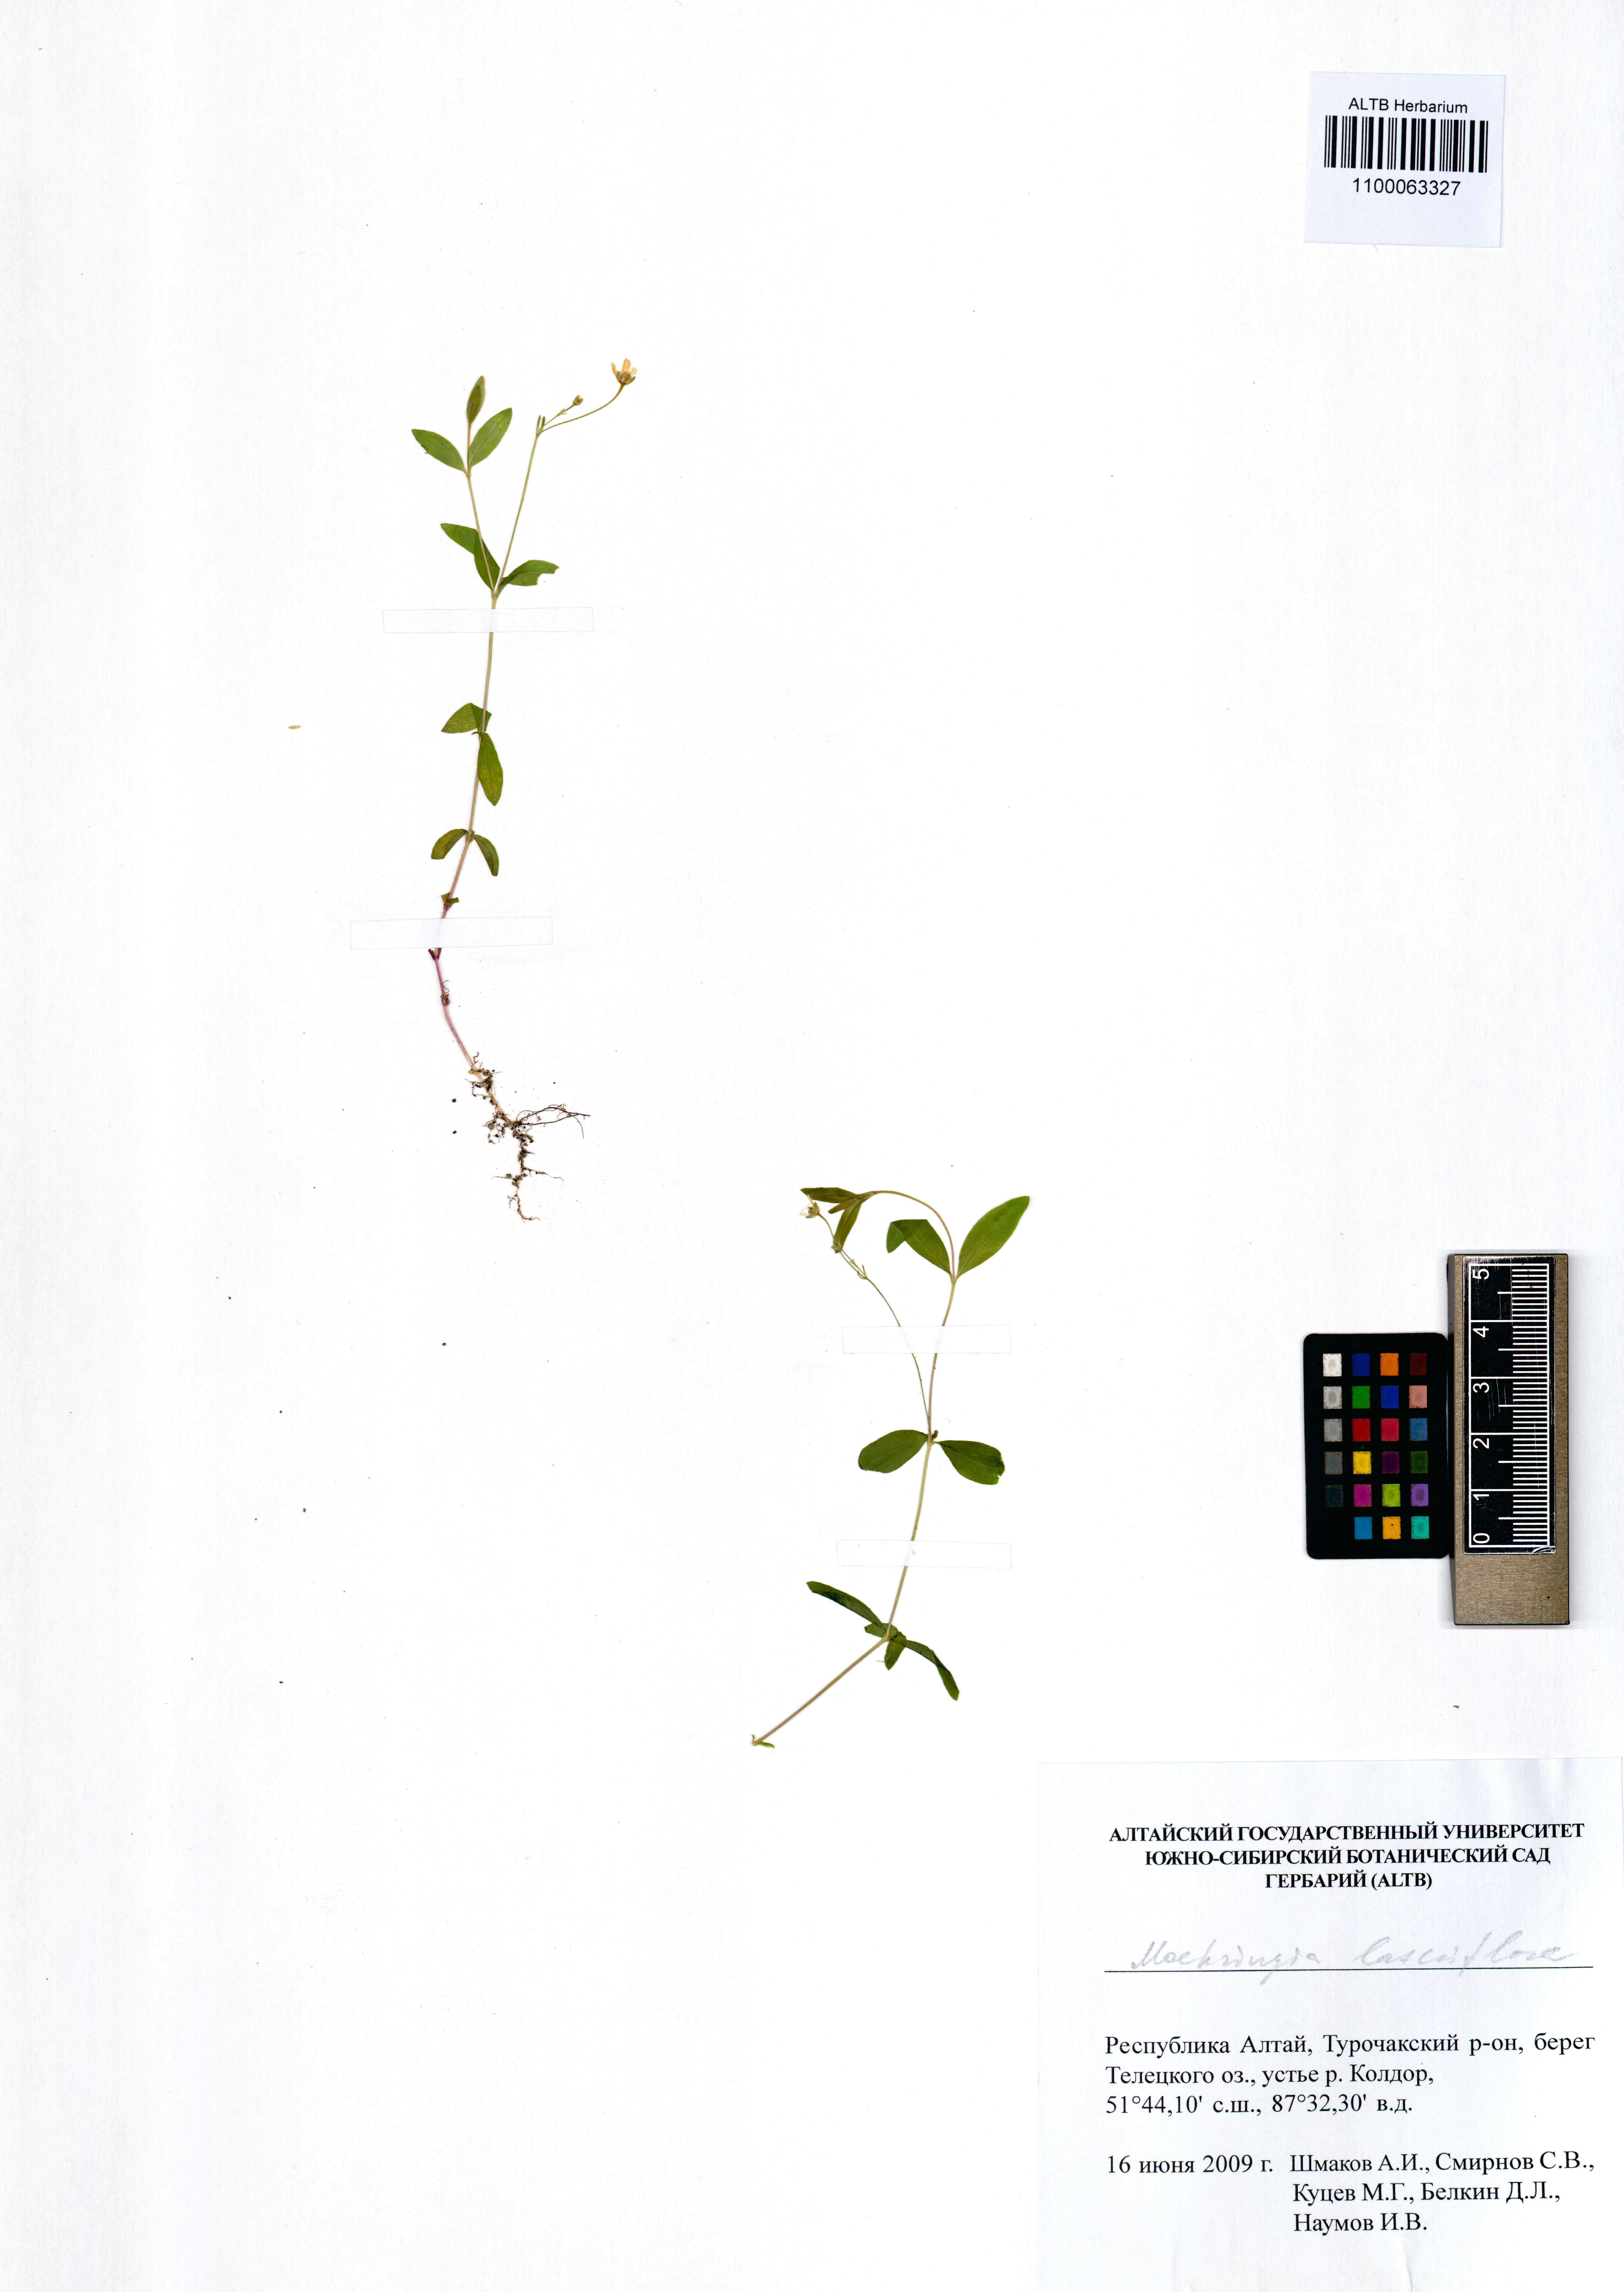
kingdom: Plantae
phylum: Tracheophyta
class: Magnoliopsida
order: Caryophyllales
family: Caryophyllaceae
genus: Moehringia
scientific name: Moehringia lateriflora
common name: Blunt-leaved sandwort
